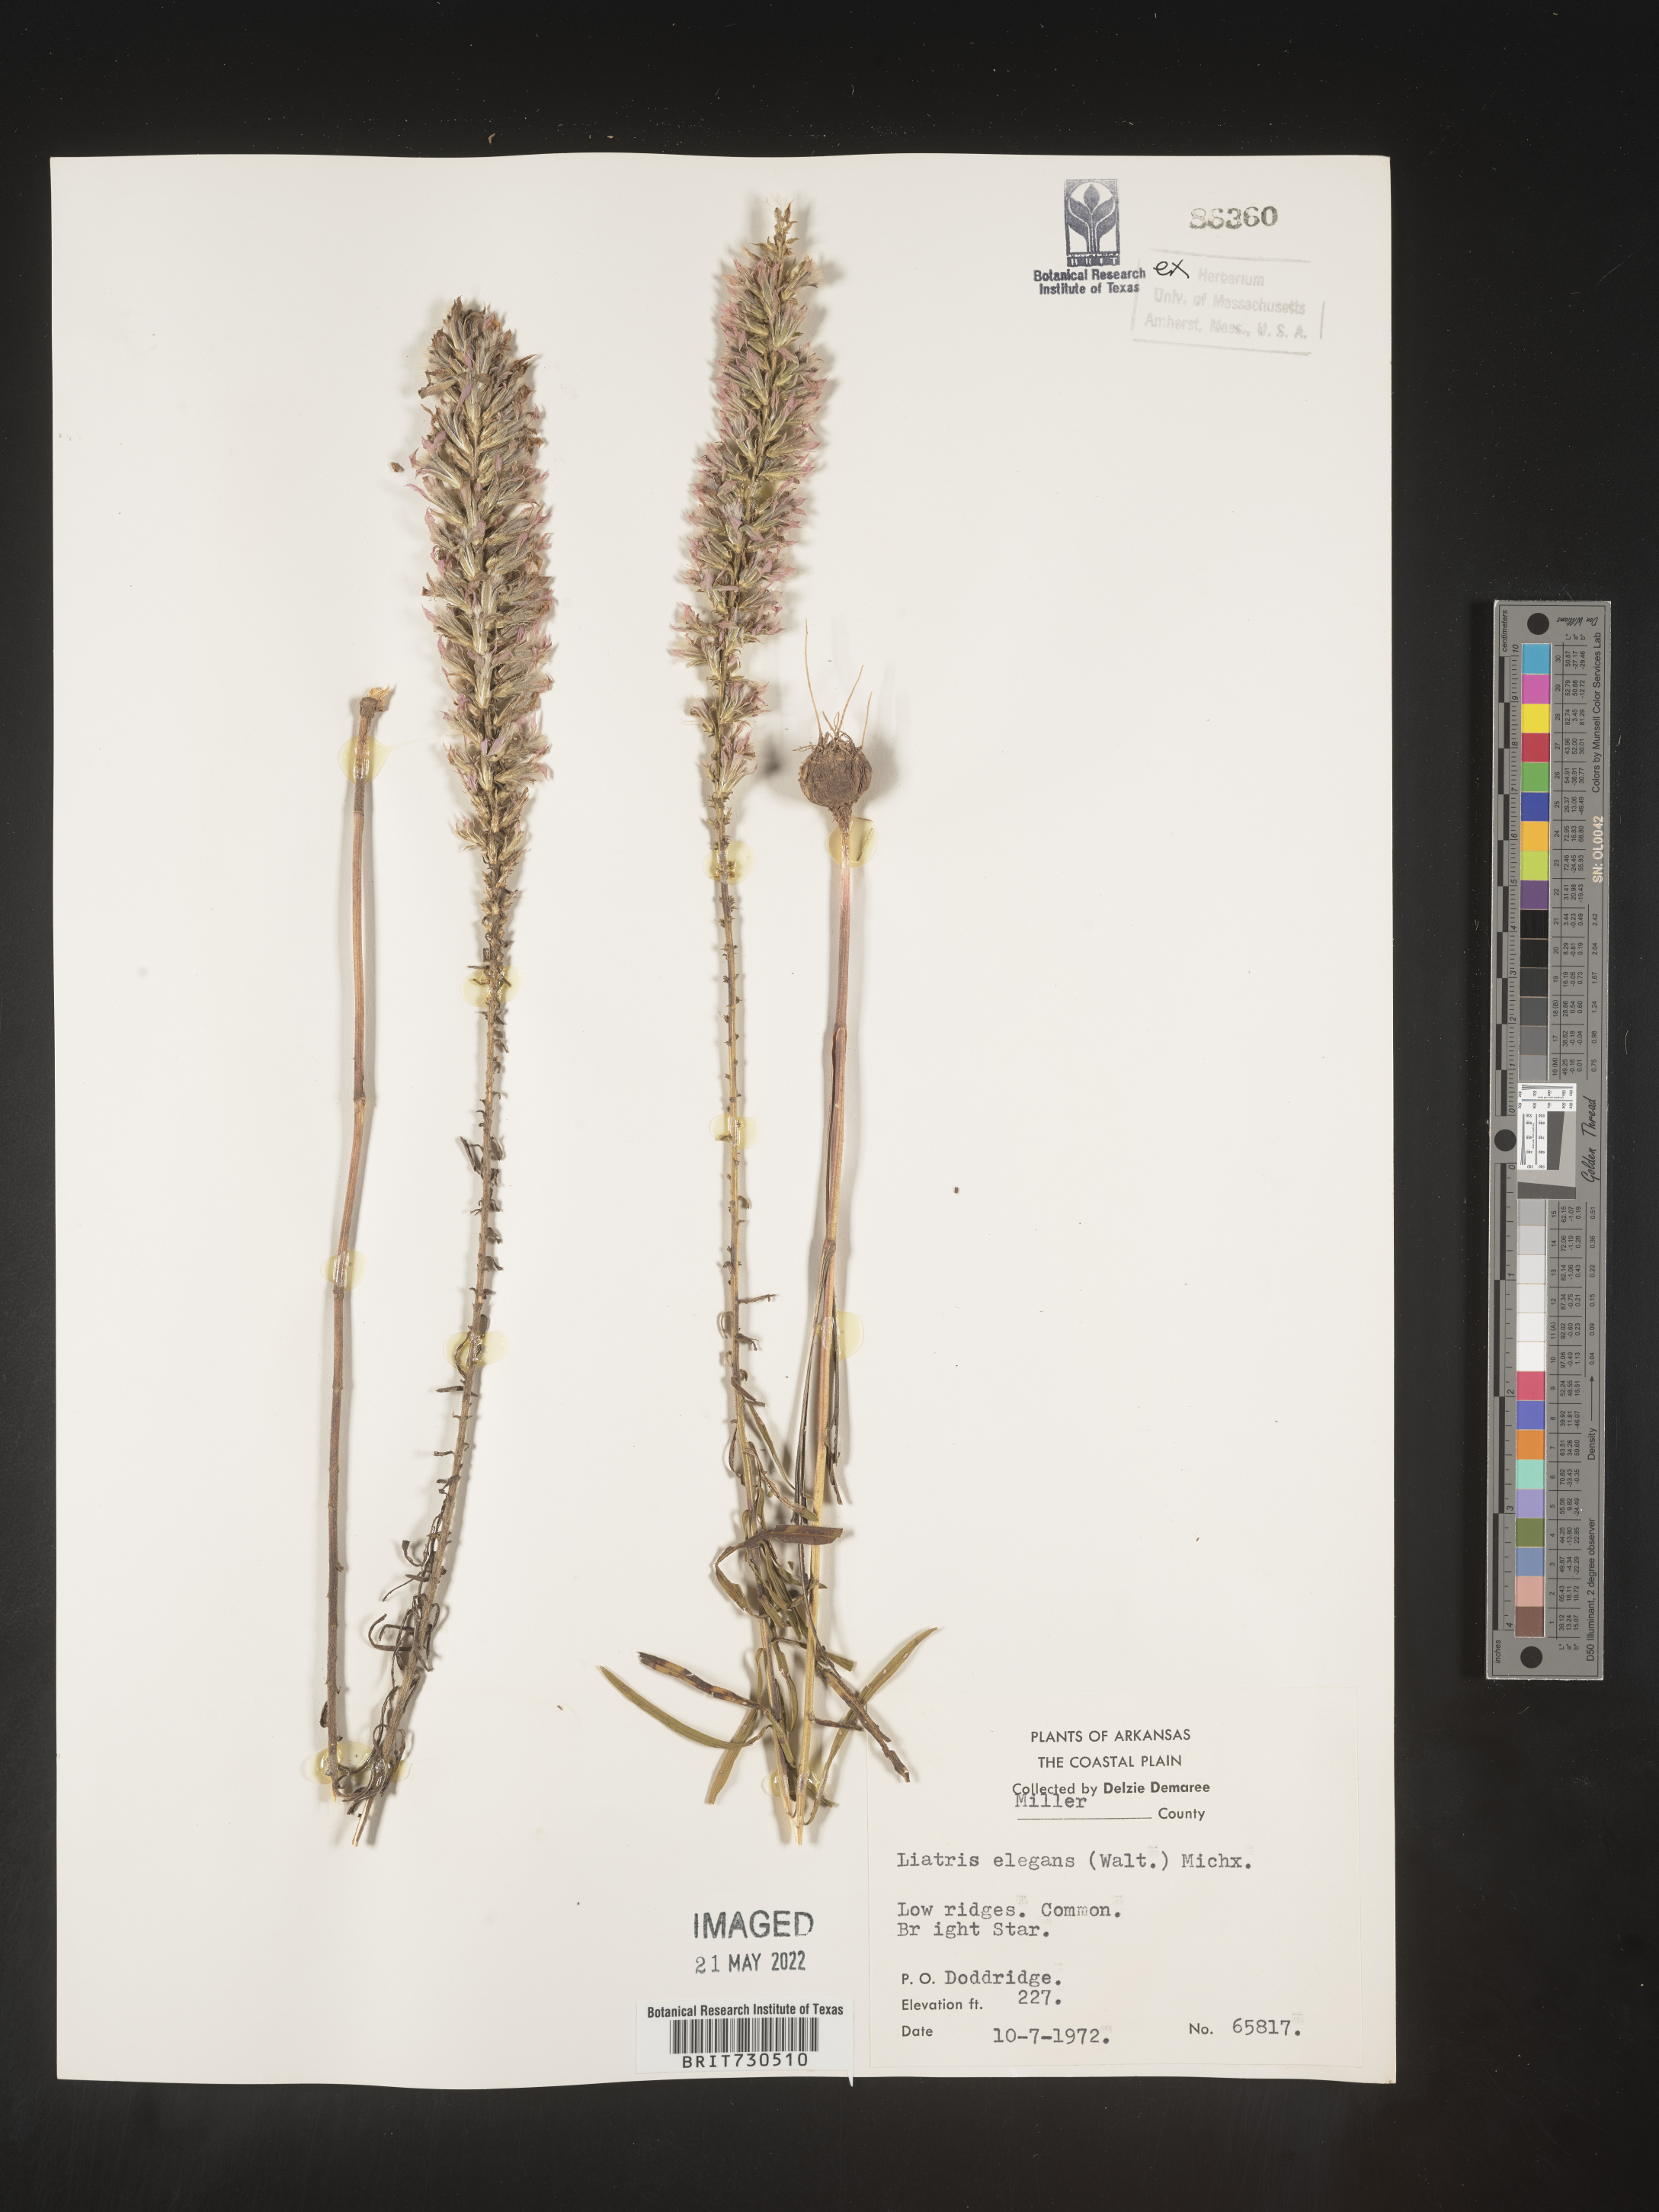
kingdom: Plantae
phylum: Tracheophyta
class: Magnoliopsida
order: Asterales
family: Asteraceae
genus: Liatris
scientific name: Liatris elegans
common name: Pinkscale gayfeather
